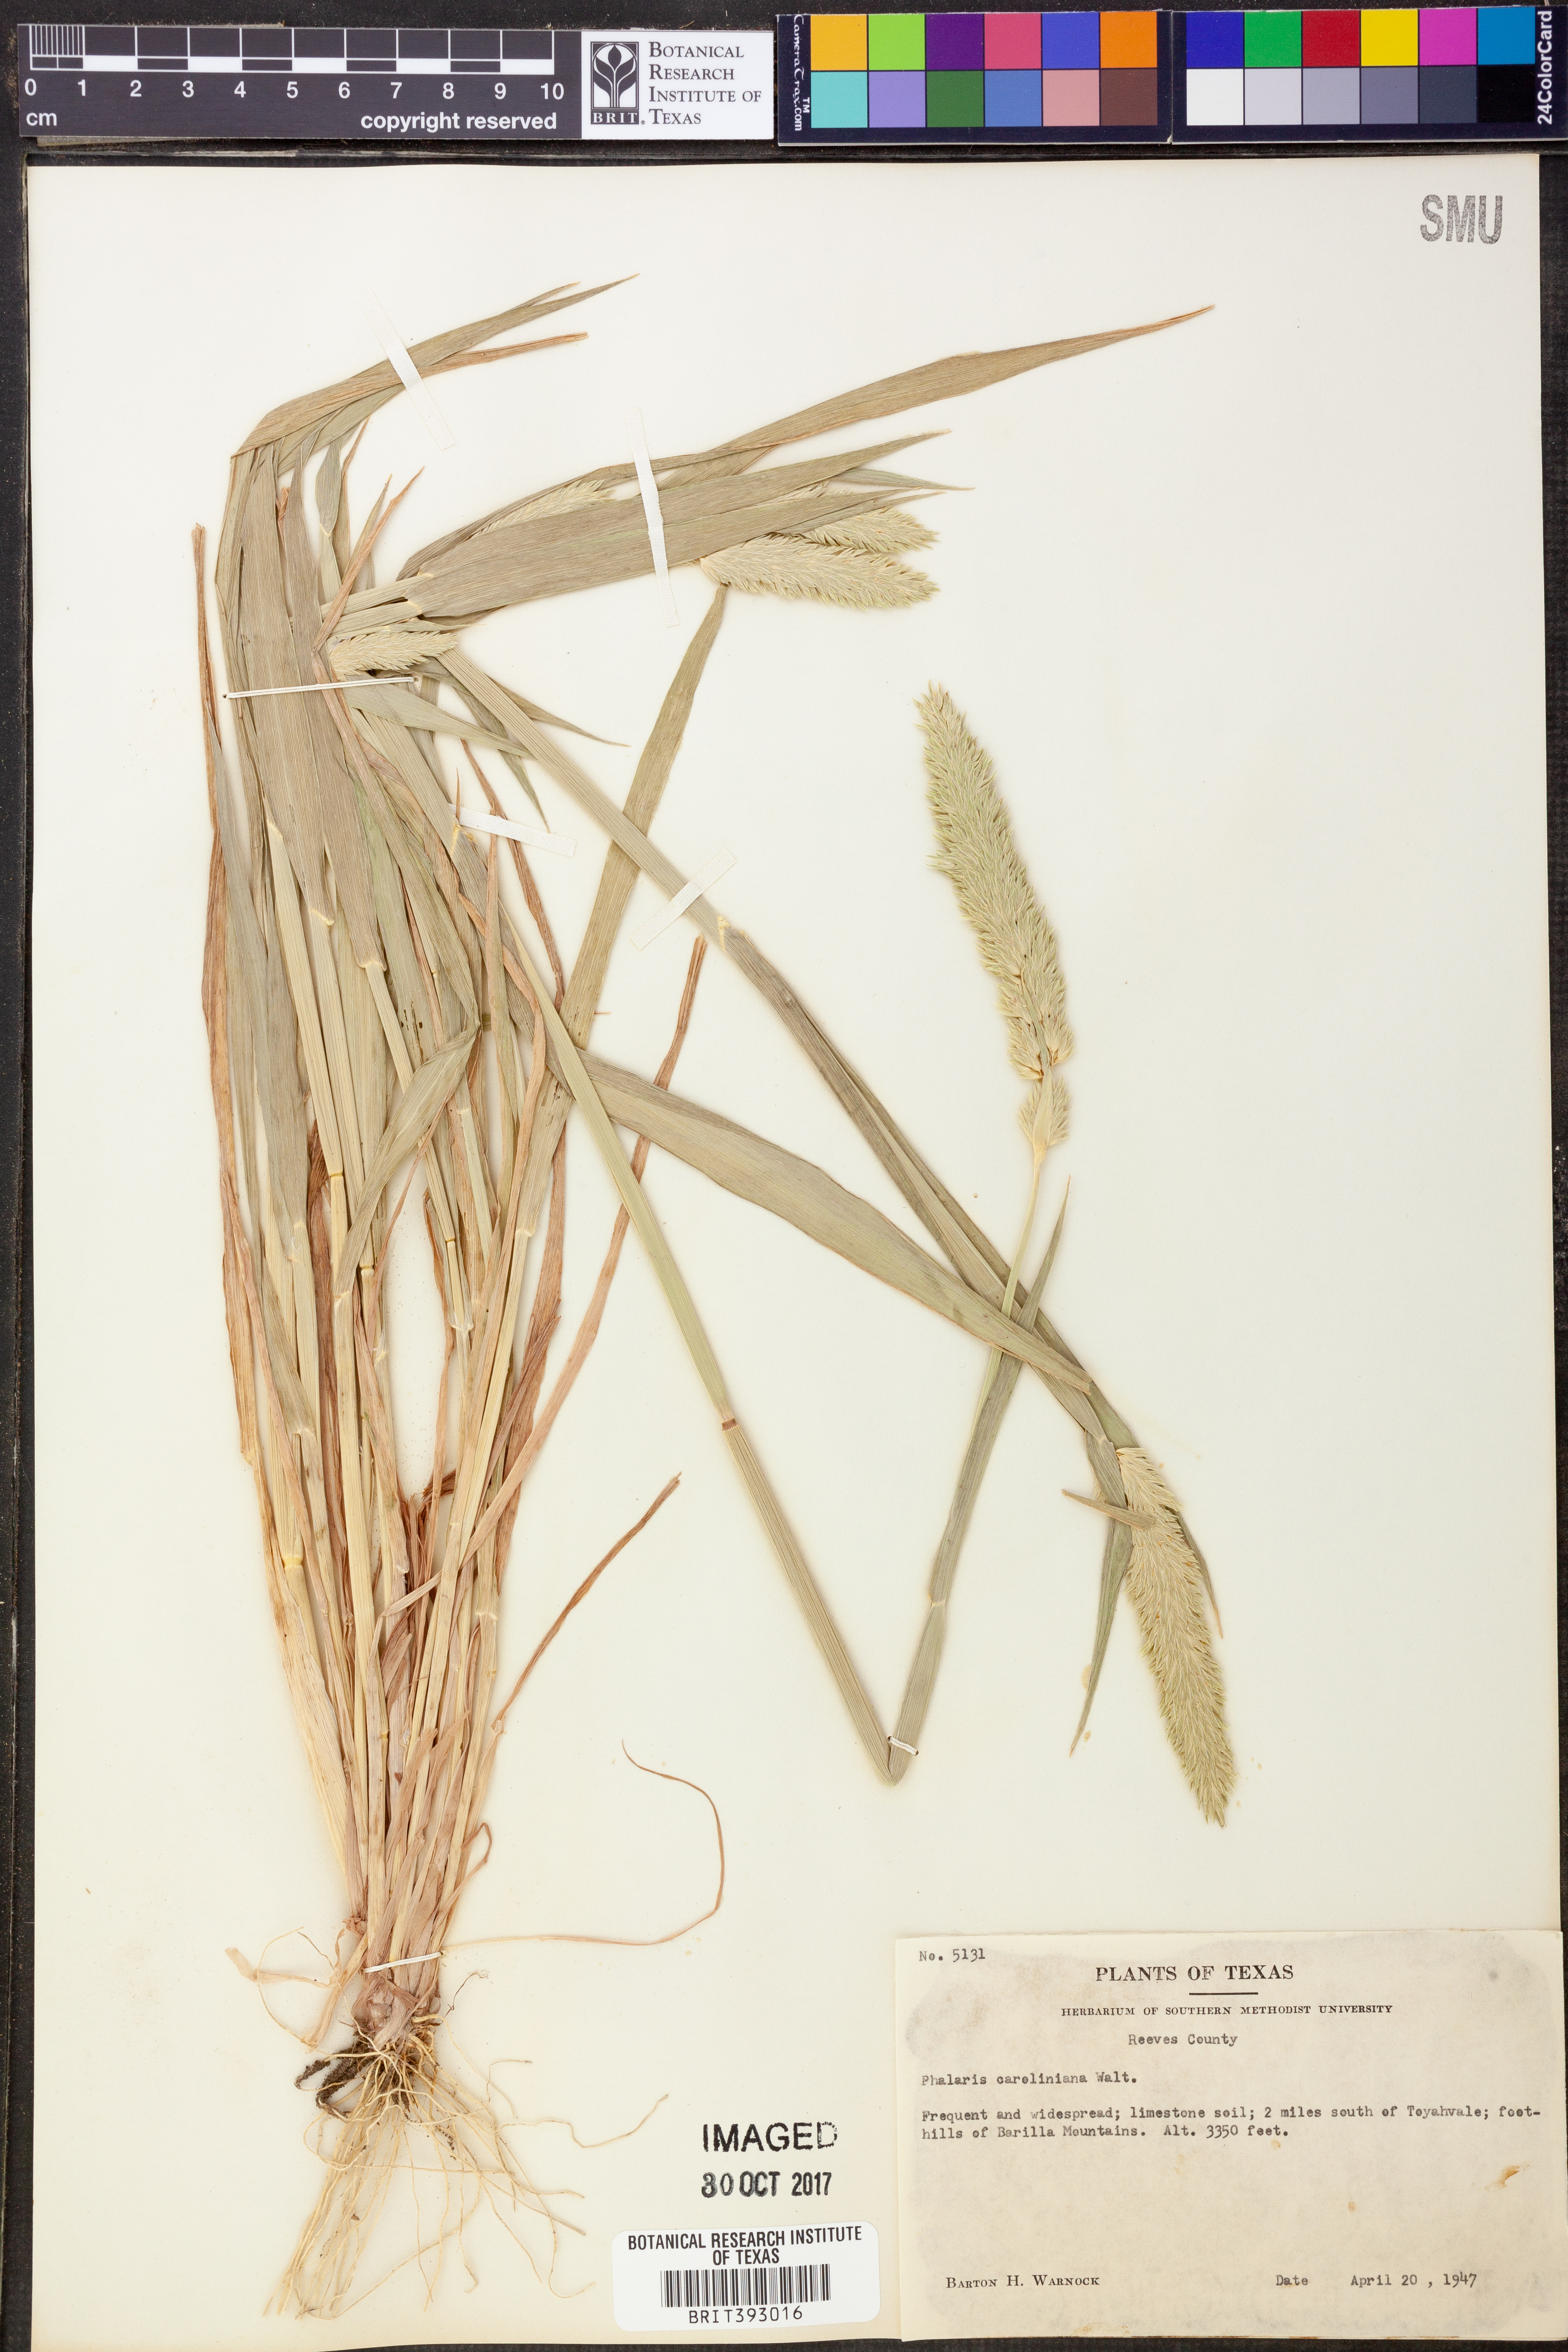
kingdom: Plantae
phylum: Tracheophyta
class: Liliopsida
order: Poales
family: Poaceae
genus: Phalaris
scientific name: Phalaris caroliniana
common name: May grass
